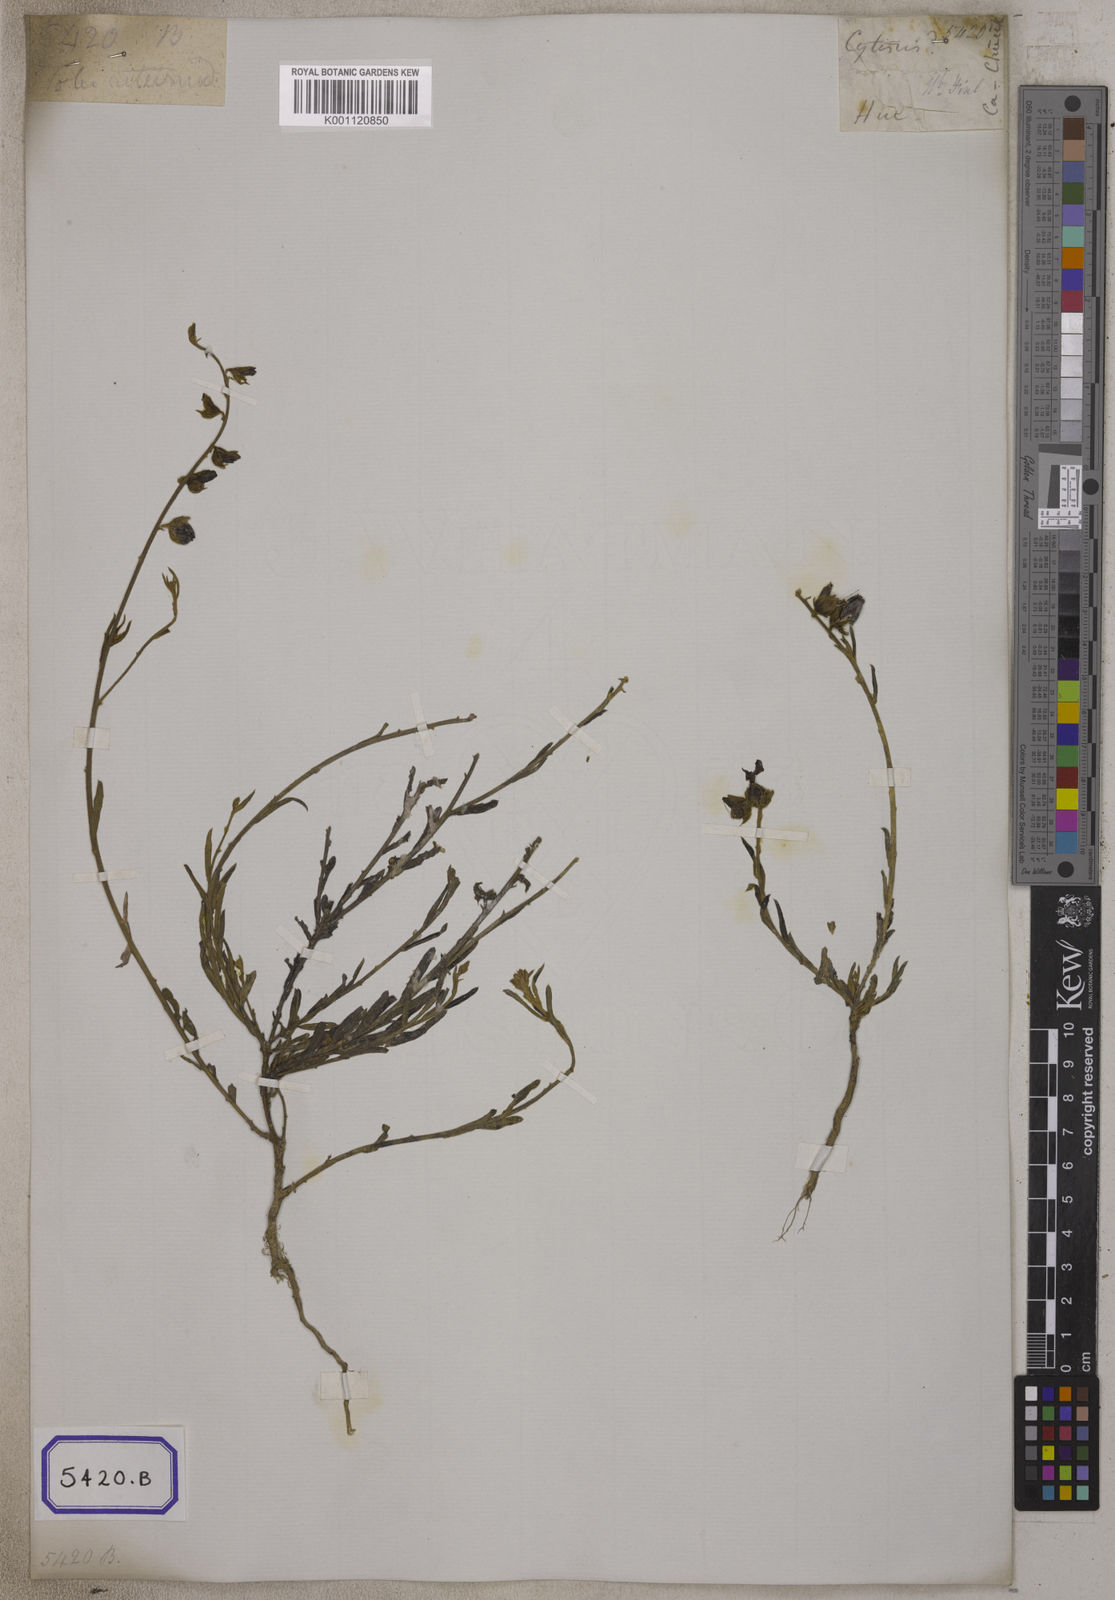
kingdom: Plantae
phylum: Tracheophyta
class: Magnoliopsida
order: Fabales
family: Fabaceae
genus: Crotalaria
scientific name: Crotalaria
